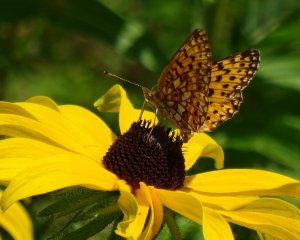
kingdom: Animalia
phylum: Arthropoda
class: Insecta
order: Lepidoptera
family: Nymphalidae
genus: Boloria
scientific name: Boloria selene
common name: Silver-bordered Fritillary
